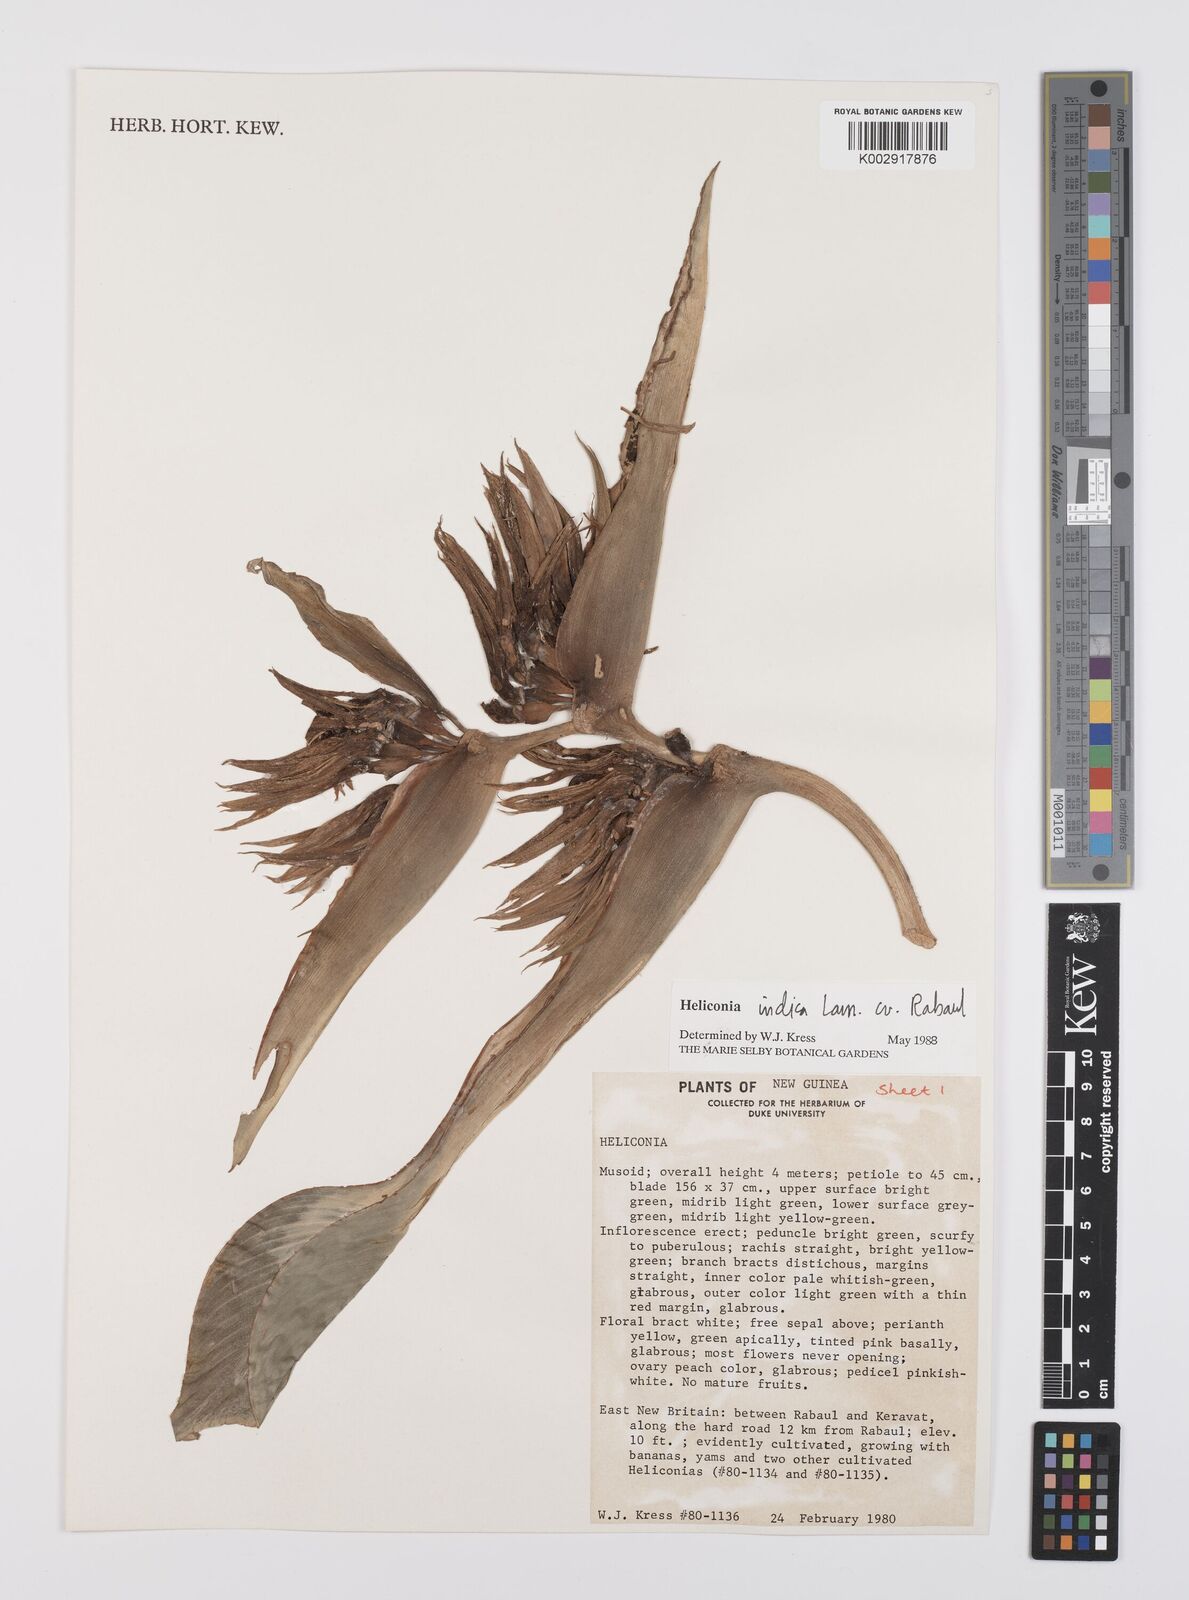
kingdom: Plantae
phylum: Tracheophyta
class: Liliopsida
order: Zingiberales
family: Heliconiaceae
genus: Heliconia
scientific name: Heliconia indica
